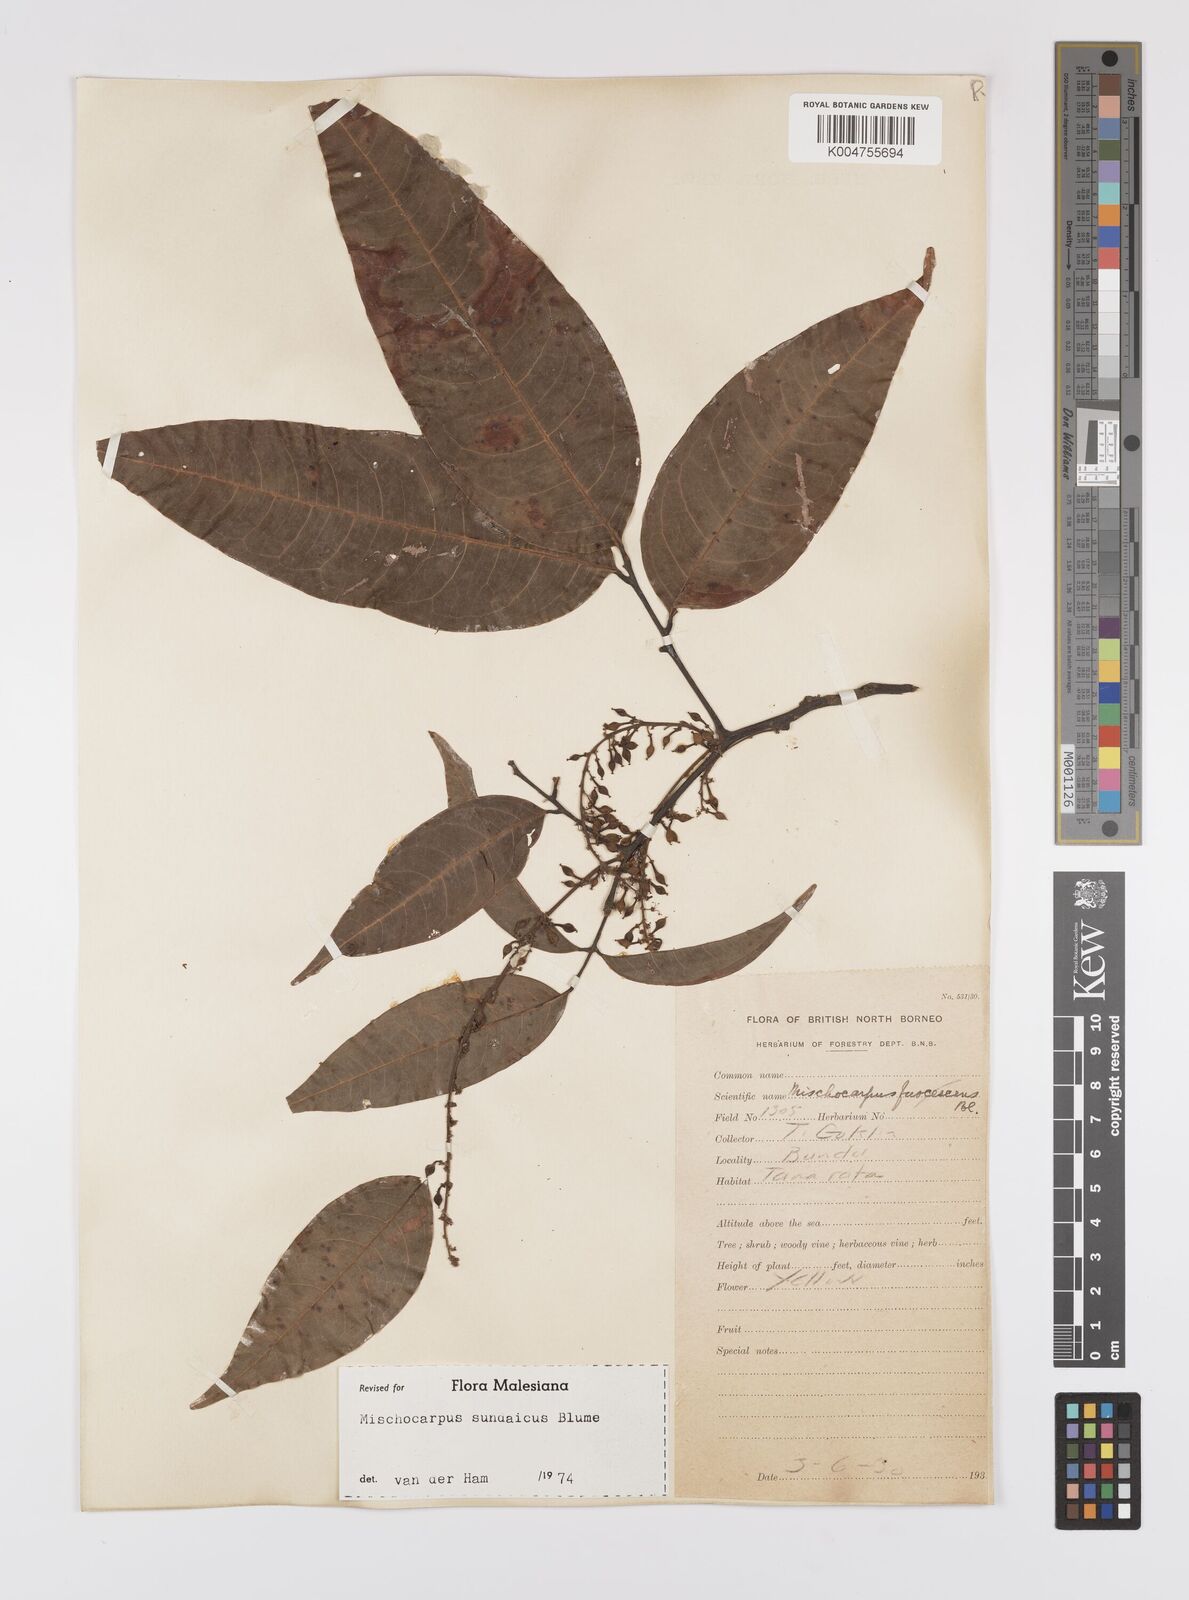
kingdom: Plantae
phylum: Tracheophyta
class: Magnoliopsida
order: Sapindales
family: Sapindaceae
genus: Mischocarpus
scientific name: Mischocarpus sundaicus
